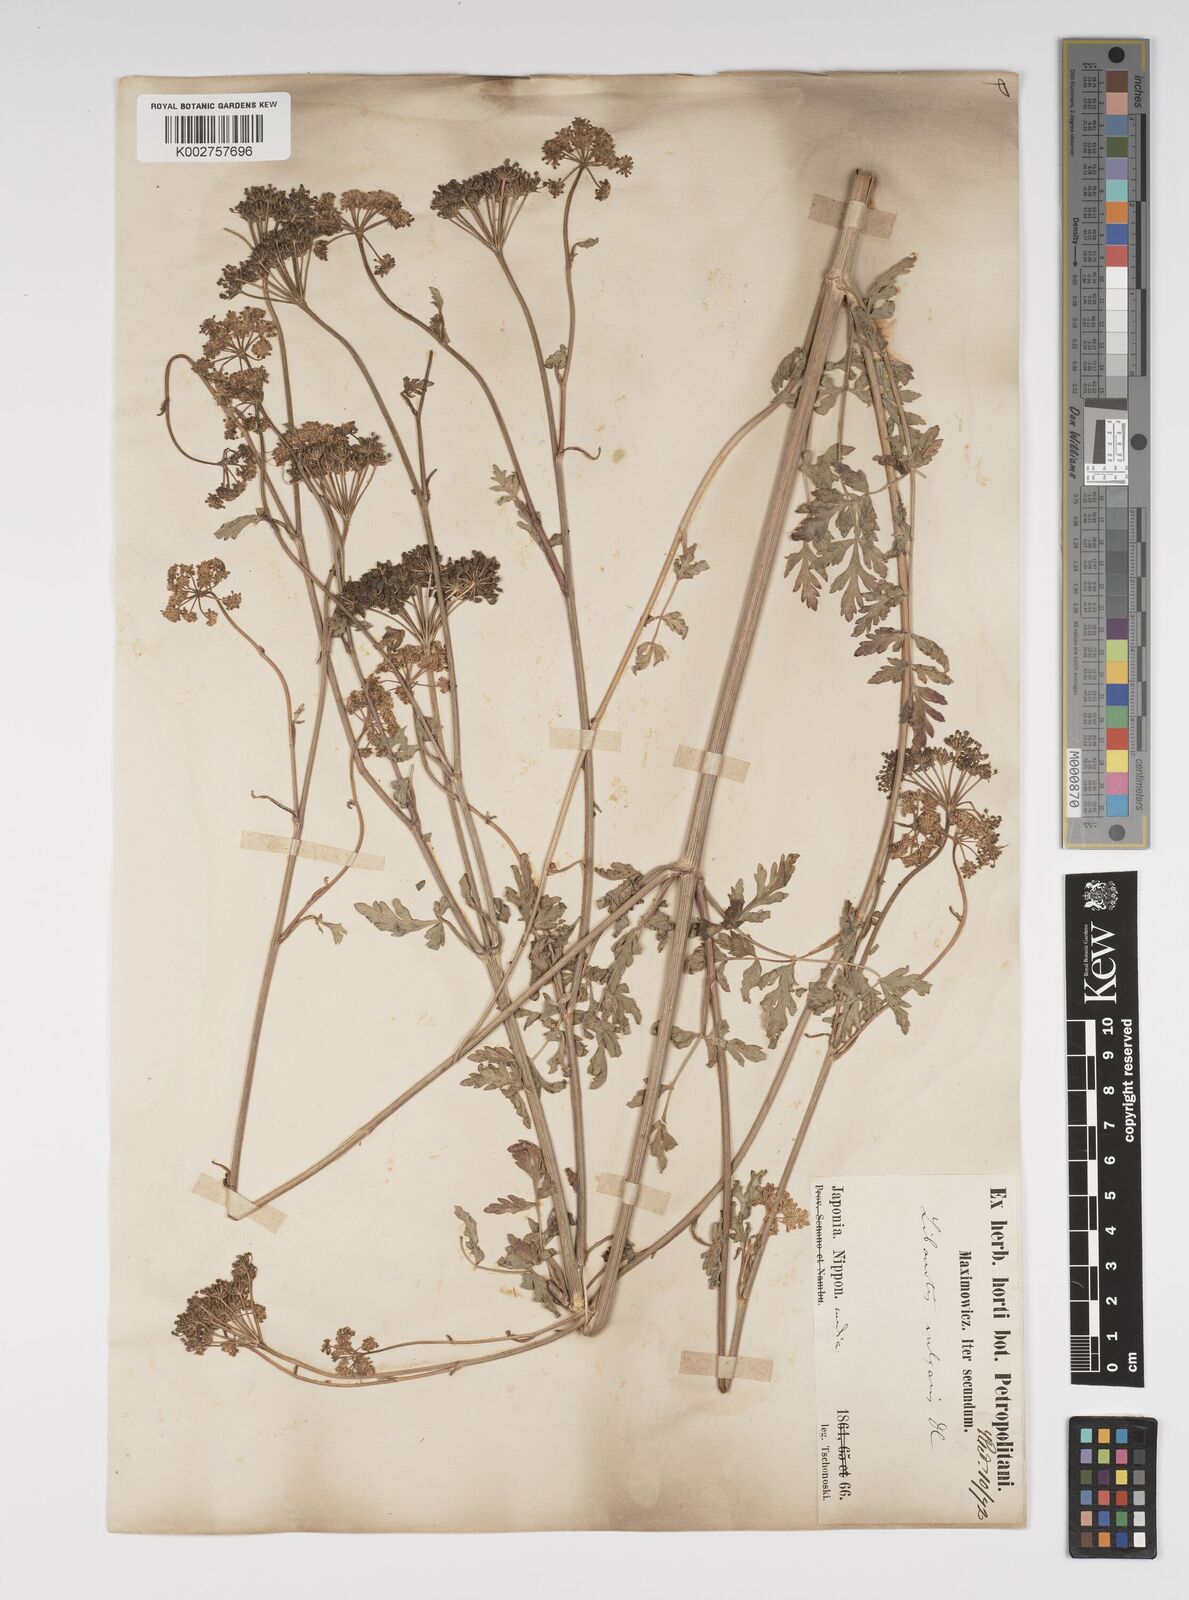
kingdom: Plantae
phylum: Tracheophyta
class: Magnoliopsida
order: Apiales
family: Apiaceae
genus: Seseli
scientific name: Seseli libanotis
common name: Mooncarrot
